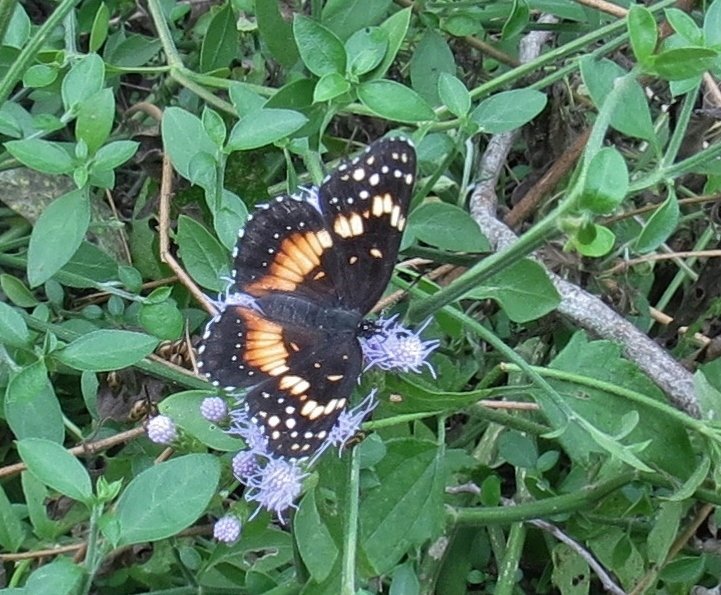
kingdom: Animalia
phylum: Arthropoda
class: Insecta
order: Lepidoptera
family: Nymphalidae
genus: Chlosyne
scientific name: Chlosyne lacinia
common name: Bordered Patch
